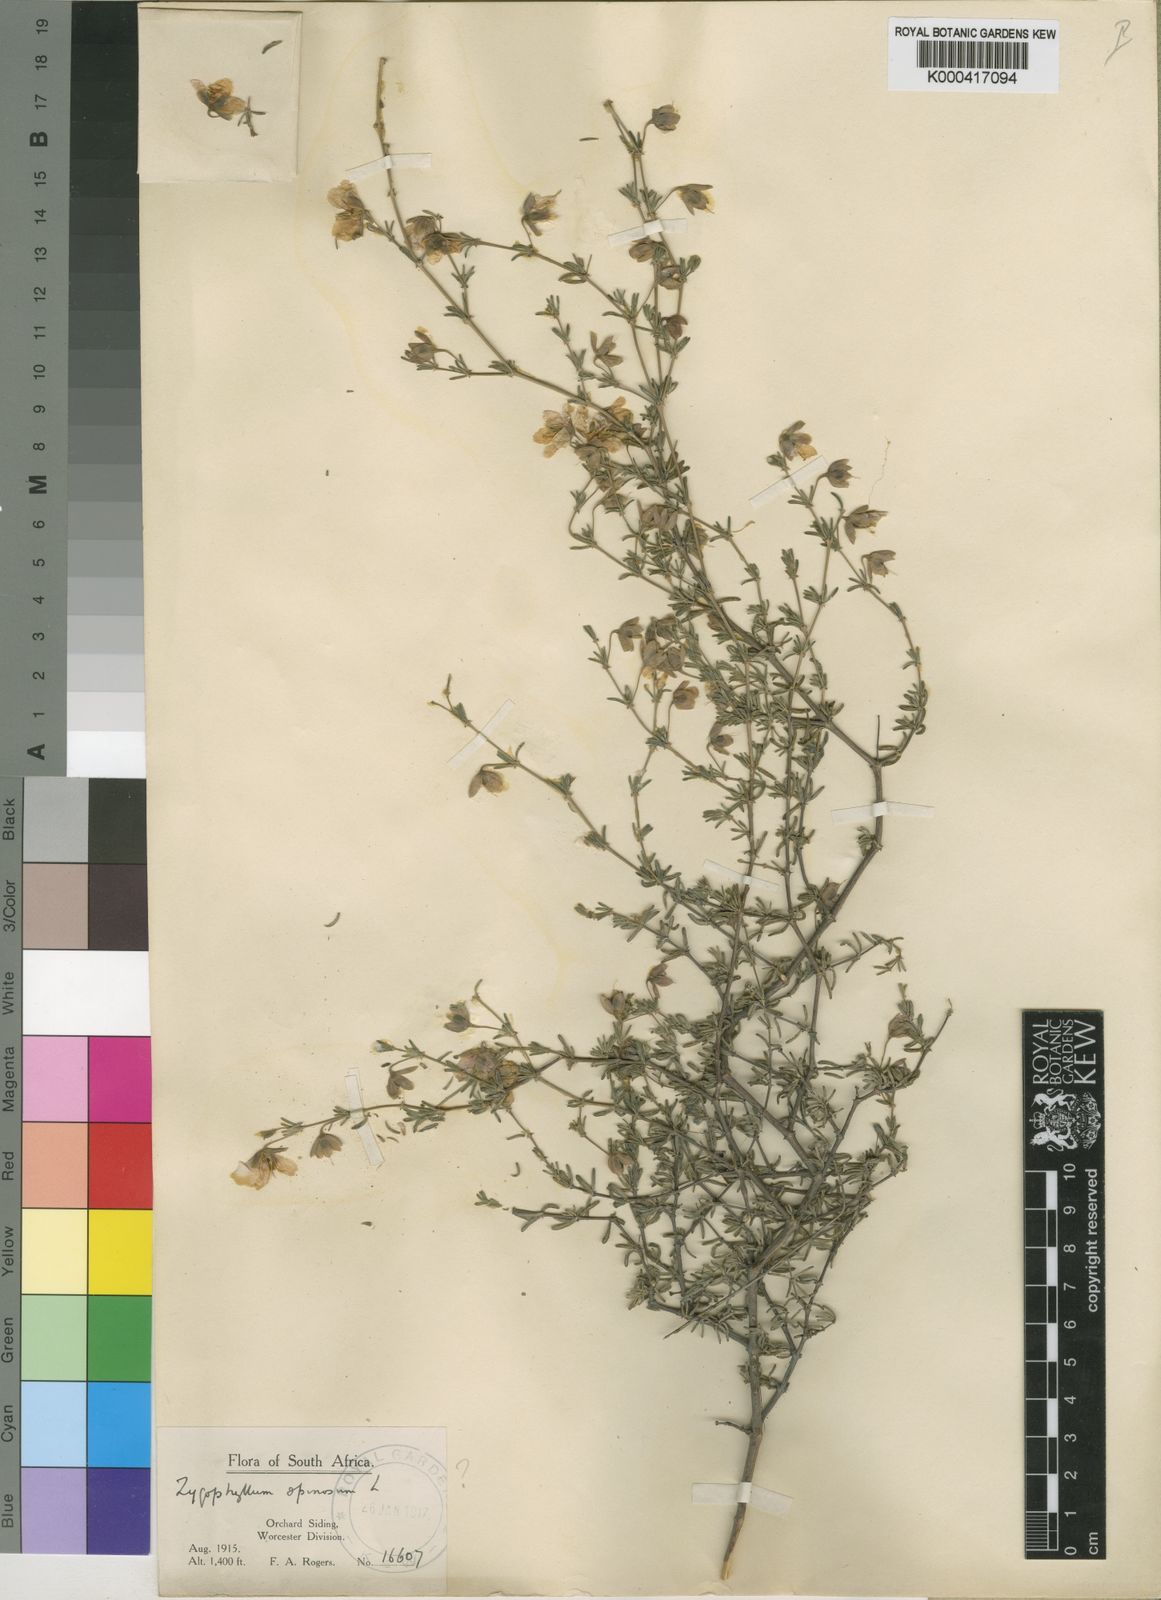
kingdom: Plantae
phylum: Tracheophyta
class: Magnoliopsida
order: Zygophyllales
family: Zygophyllaceae
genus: Roepera
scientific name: Roepera rogersii
